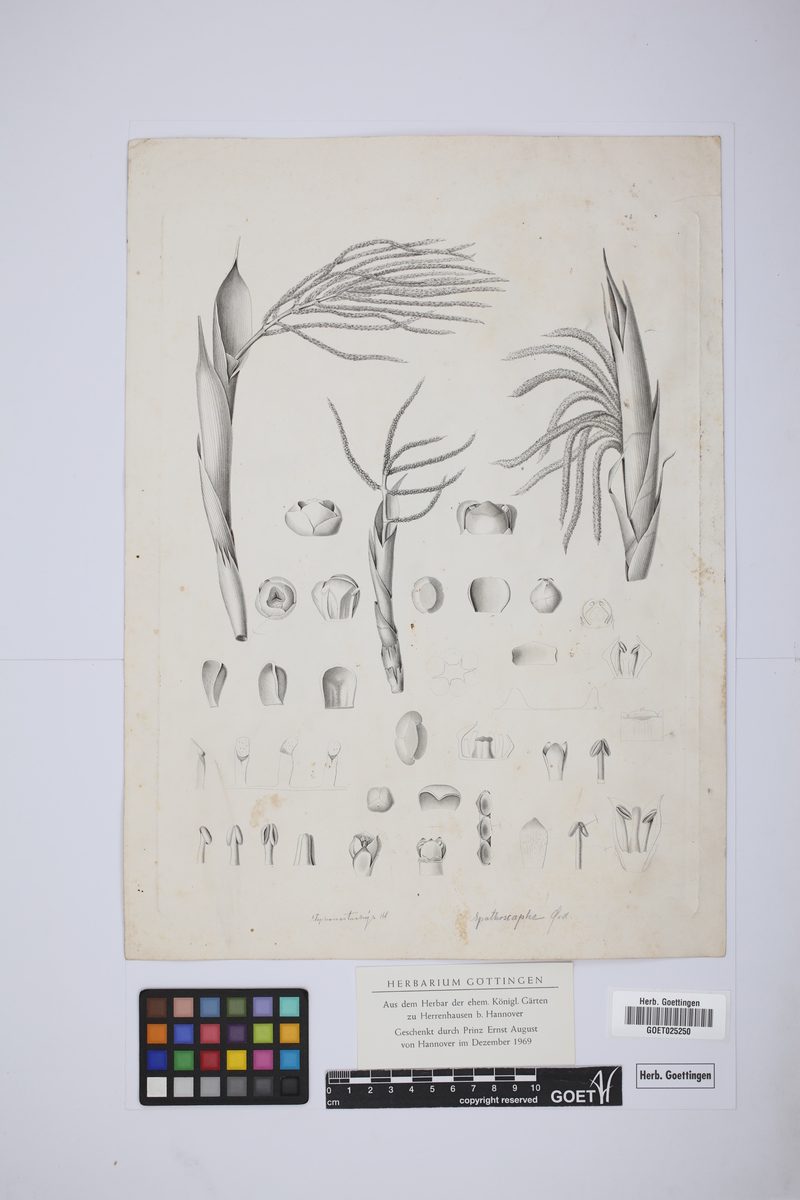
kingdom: Plantae
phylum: Tracheophyta
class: Liliopsida
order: Arecales
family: Arecaceae
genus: Chamaedorea
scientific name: Chamaedorea tepejilote
